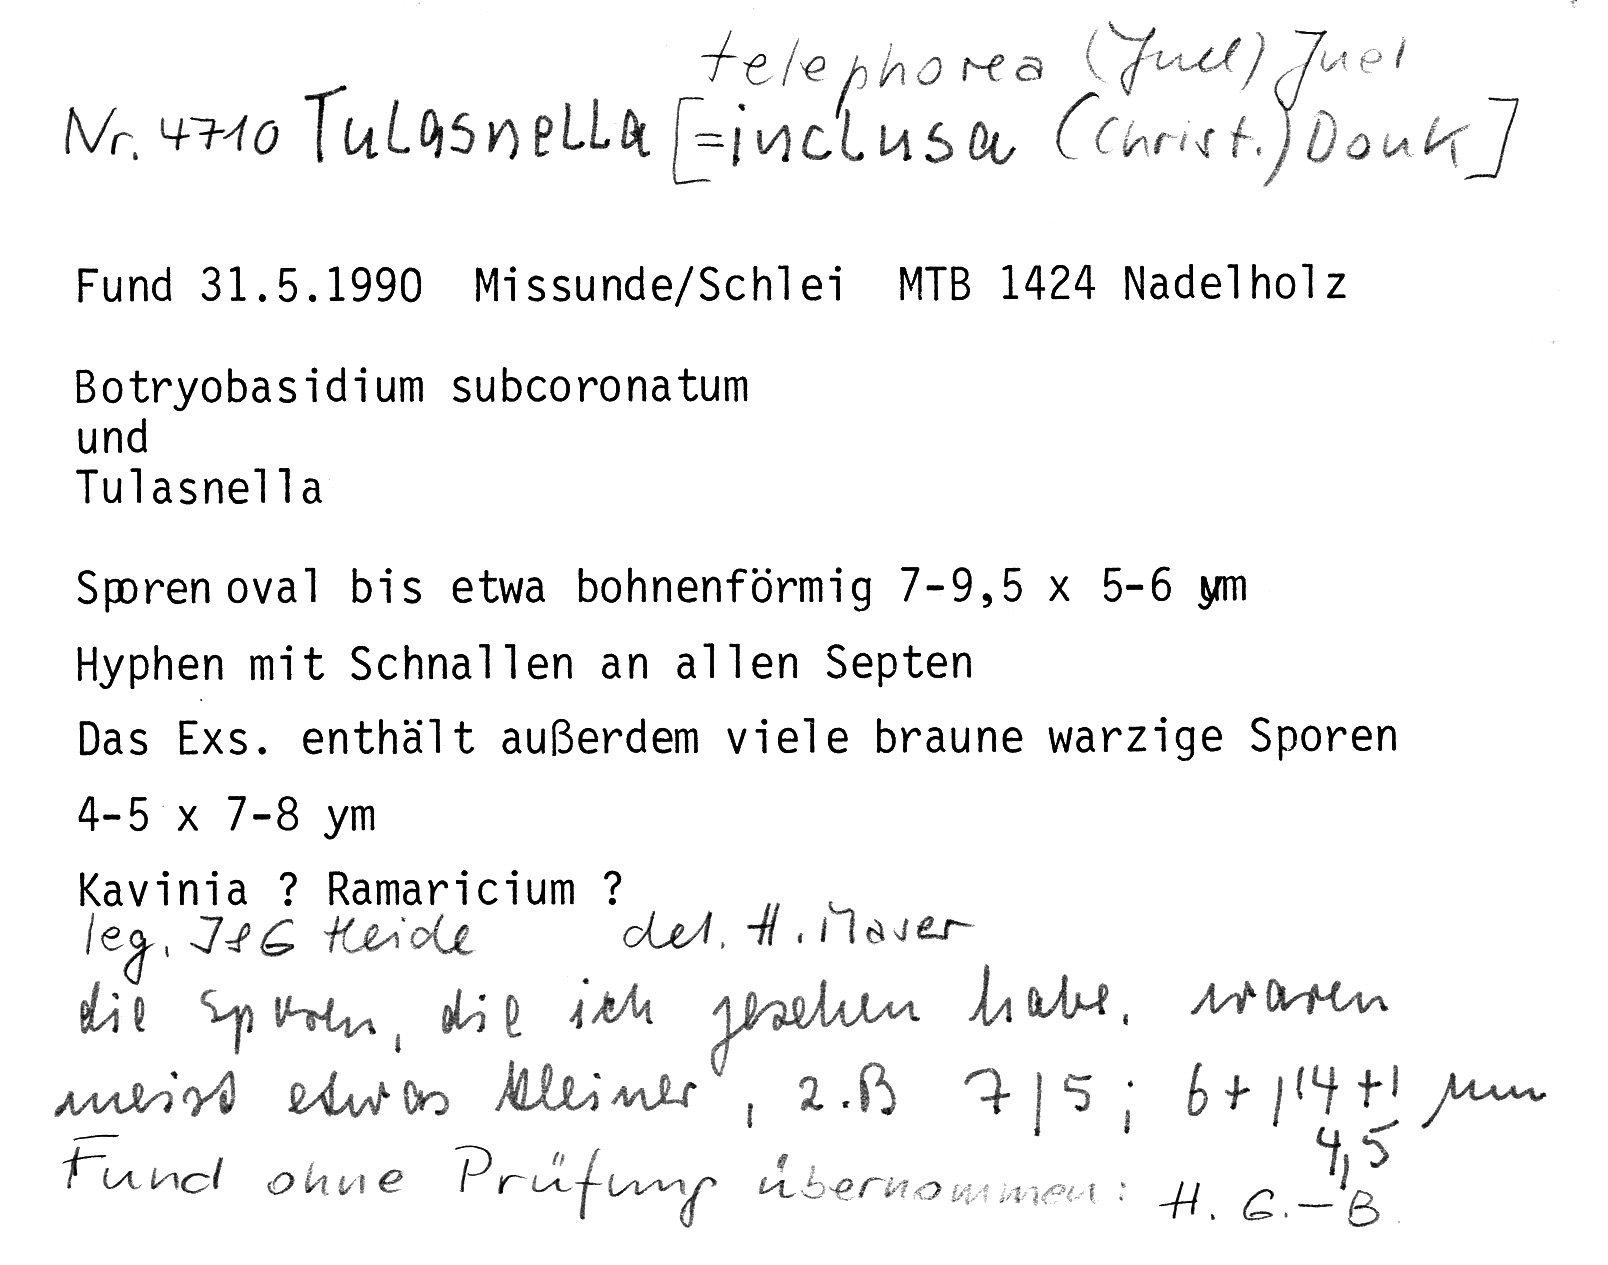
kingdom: Fungi
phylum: Basidiomycota
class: Agaricomycetes
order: Cantharellales
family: Tulasnellaceae
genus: Tulasnella
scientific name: Tulasnella inclusa
